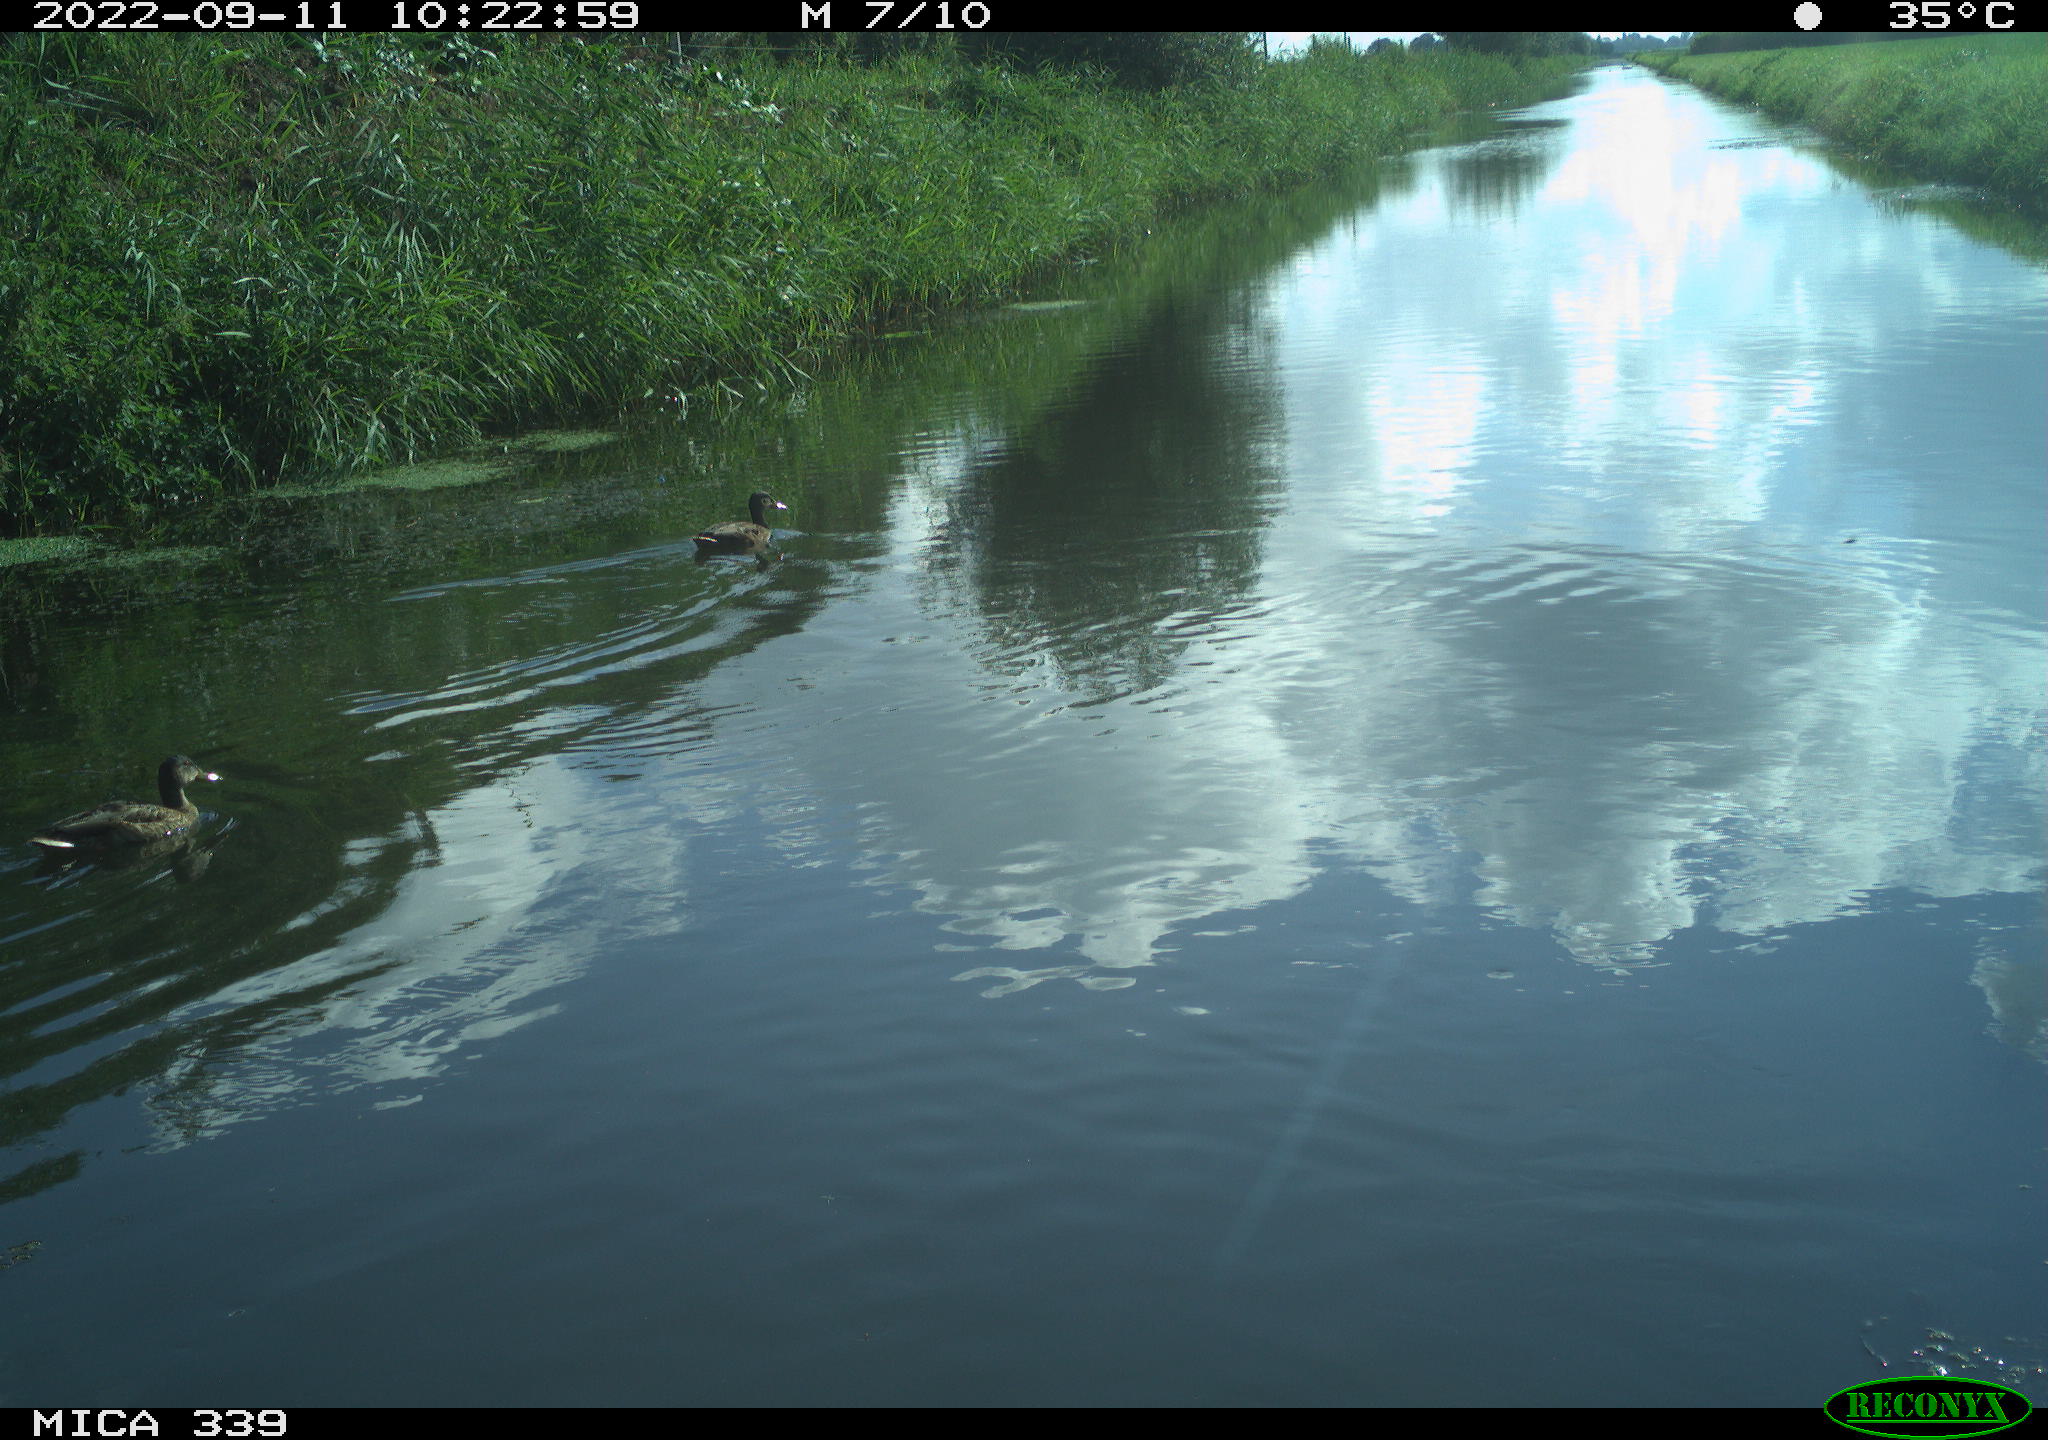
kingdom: Animalia
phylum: Chordata
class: Aves
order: Gruiformes
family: Rallidae
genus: Gallinula
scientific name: Gallinula chloropus
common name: Common moorhen
